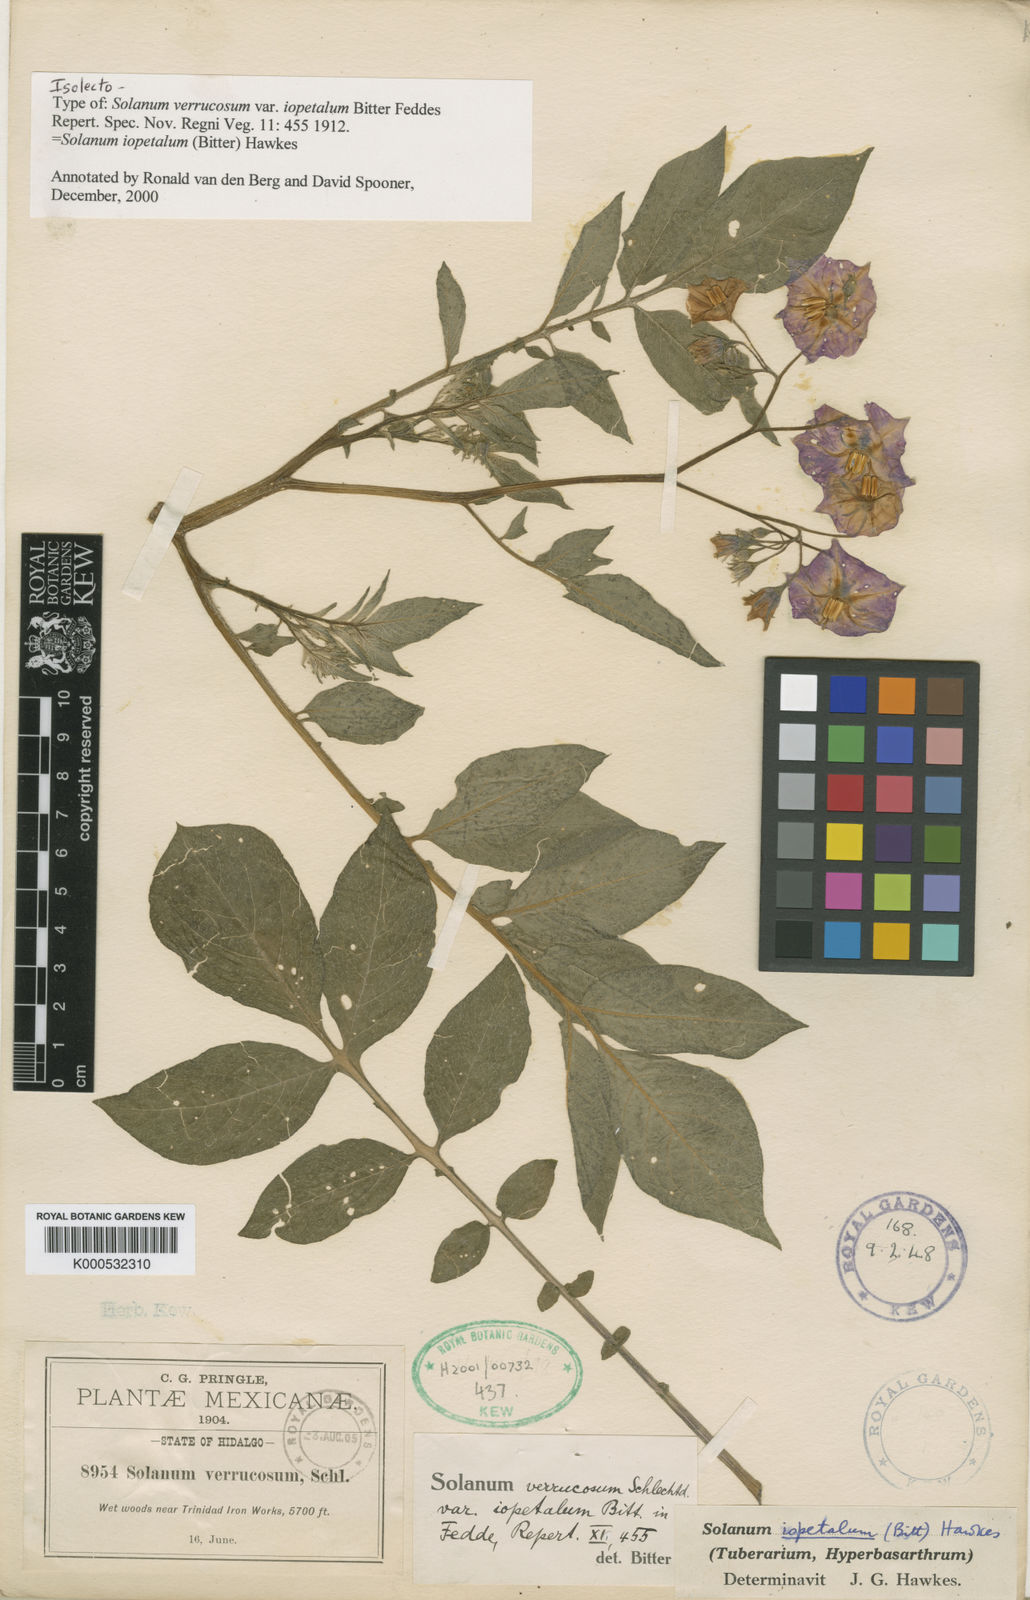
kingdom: Plantae
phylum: Tracheophyta
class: Magnoliopsida
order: Solanales
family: Solanaceae
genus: Solanum
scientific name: Solanum iopetalum
